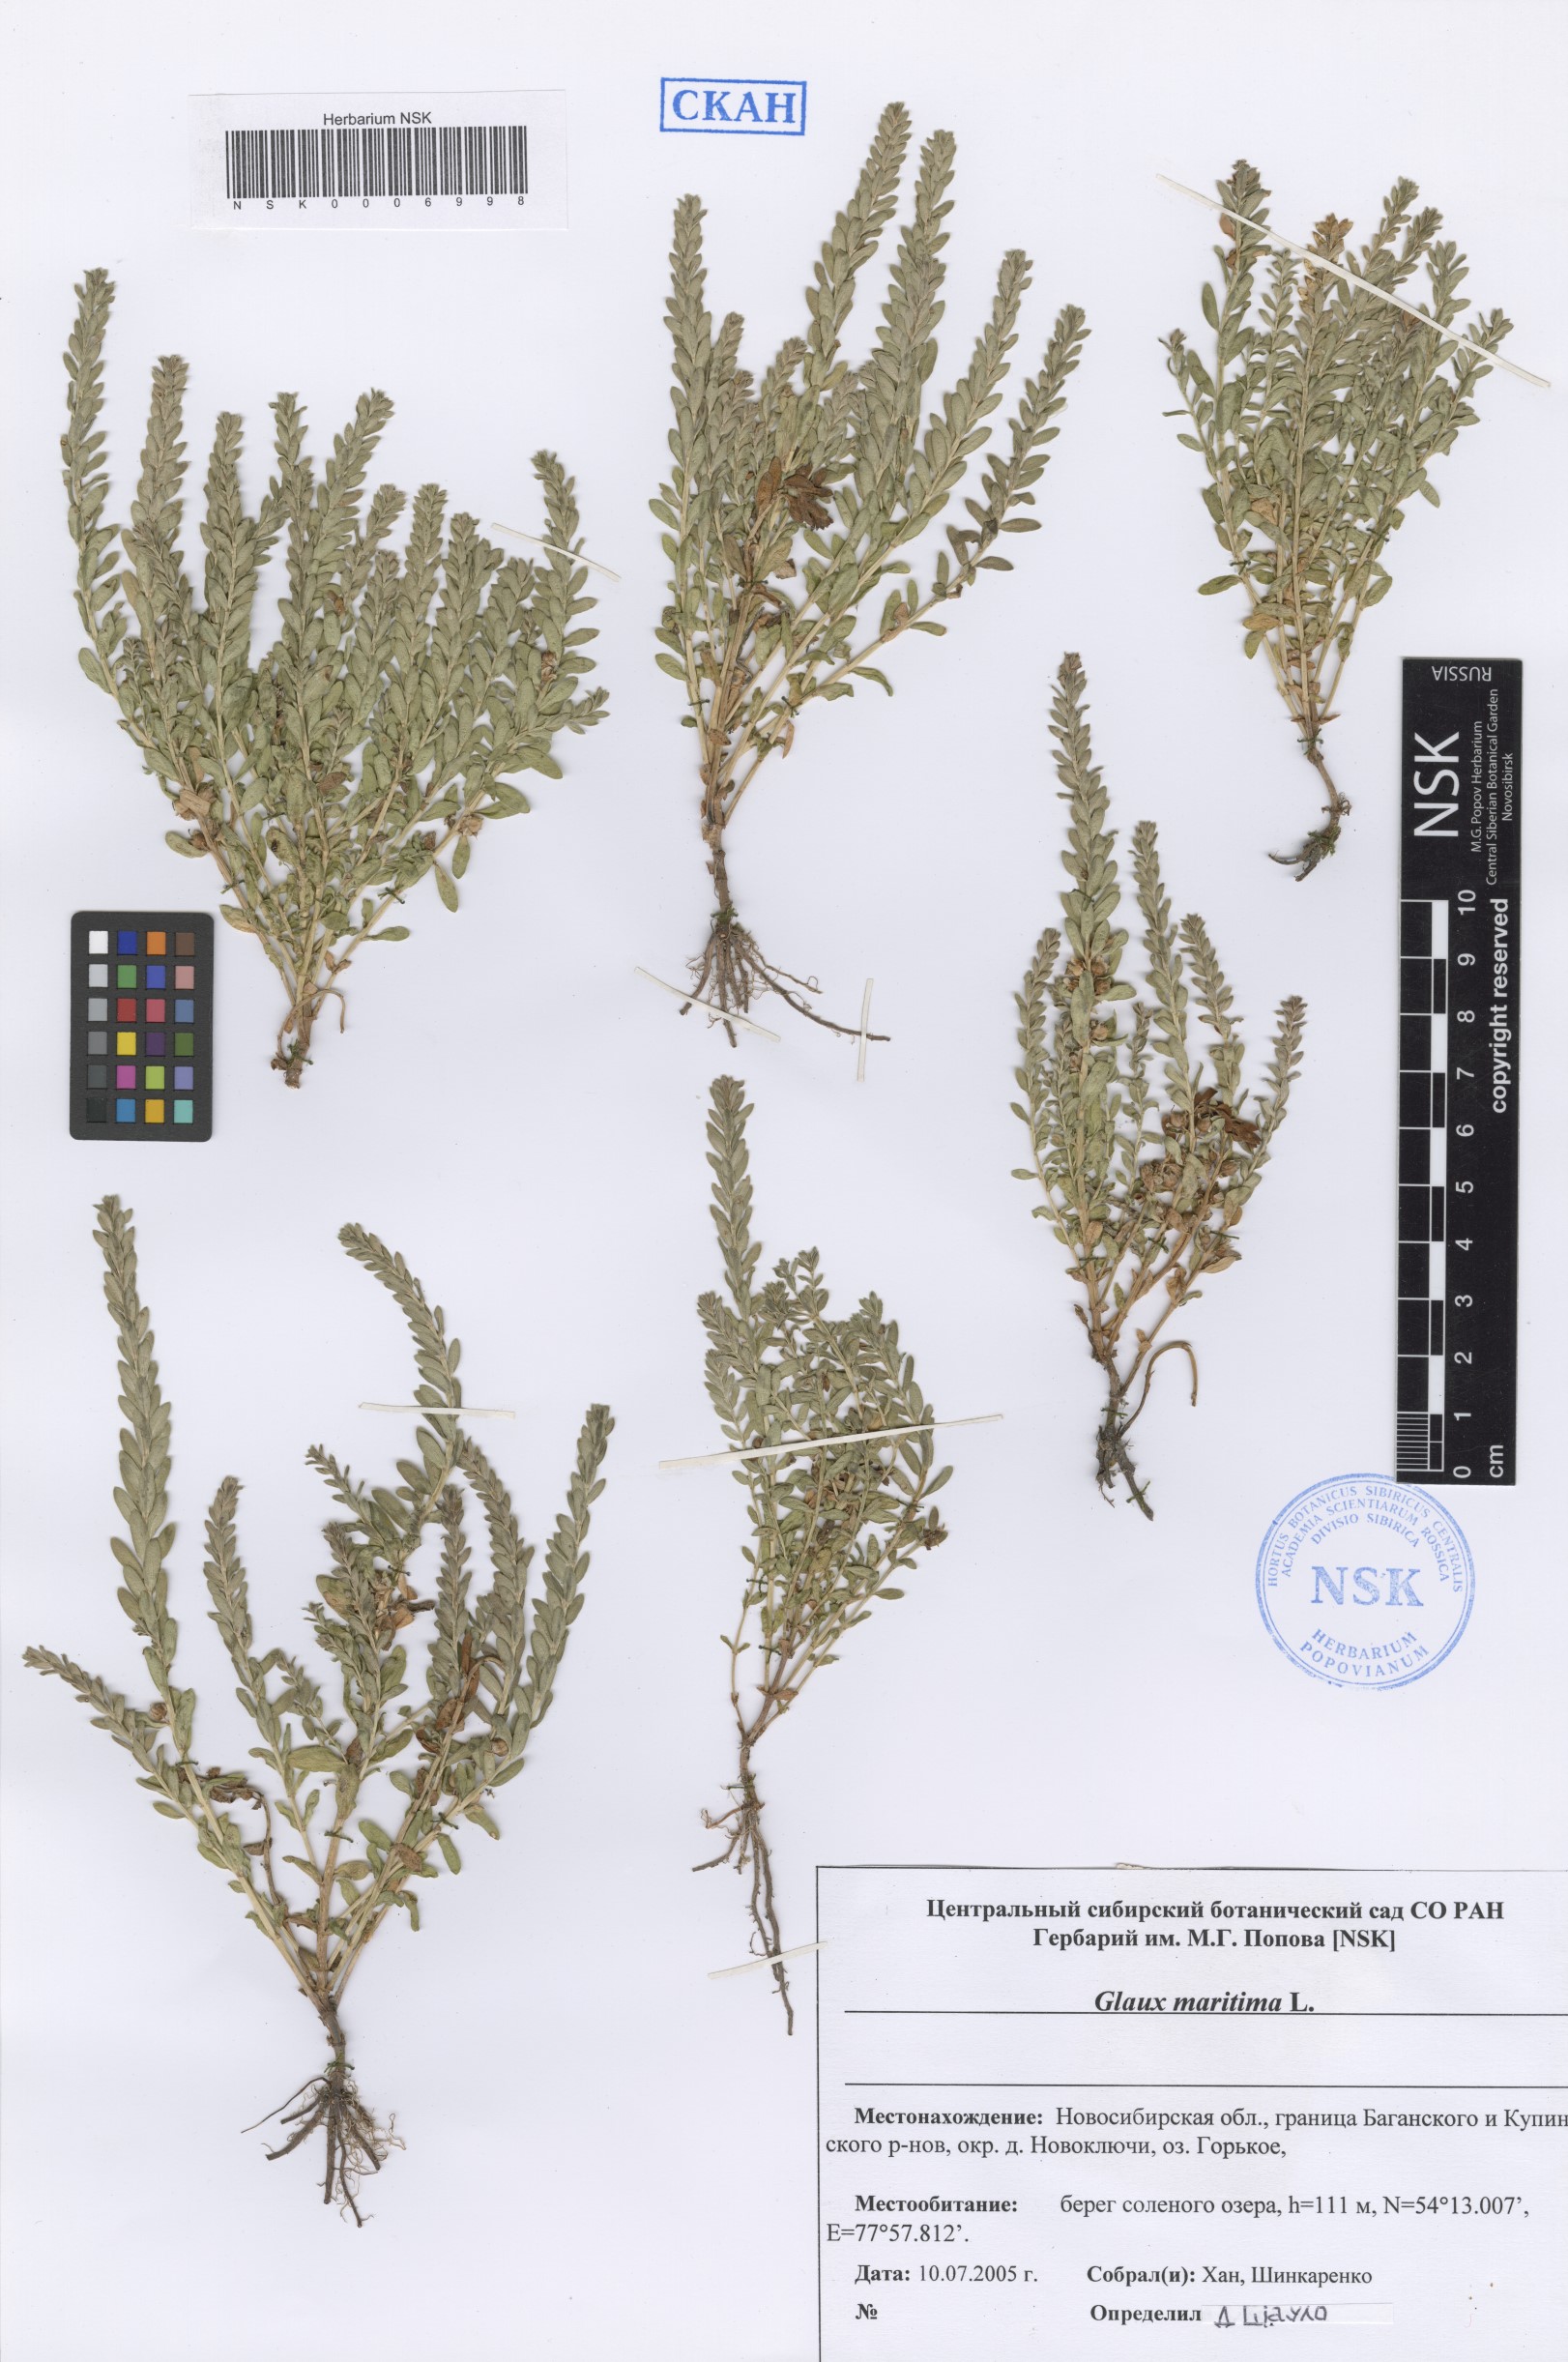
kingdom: Plantae
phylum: Tracheophyta
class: Magnoliopsida
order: Ericales
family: Primulaceae
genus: Lysimachia
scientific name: Lysimachia maritima
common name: Sea milkwort
